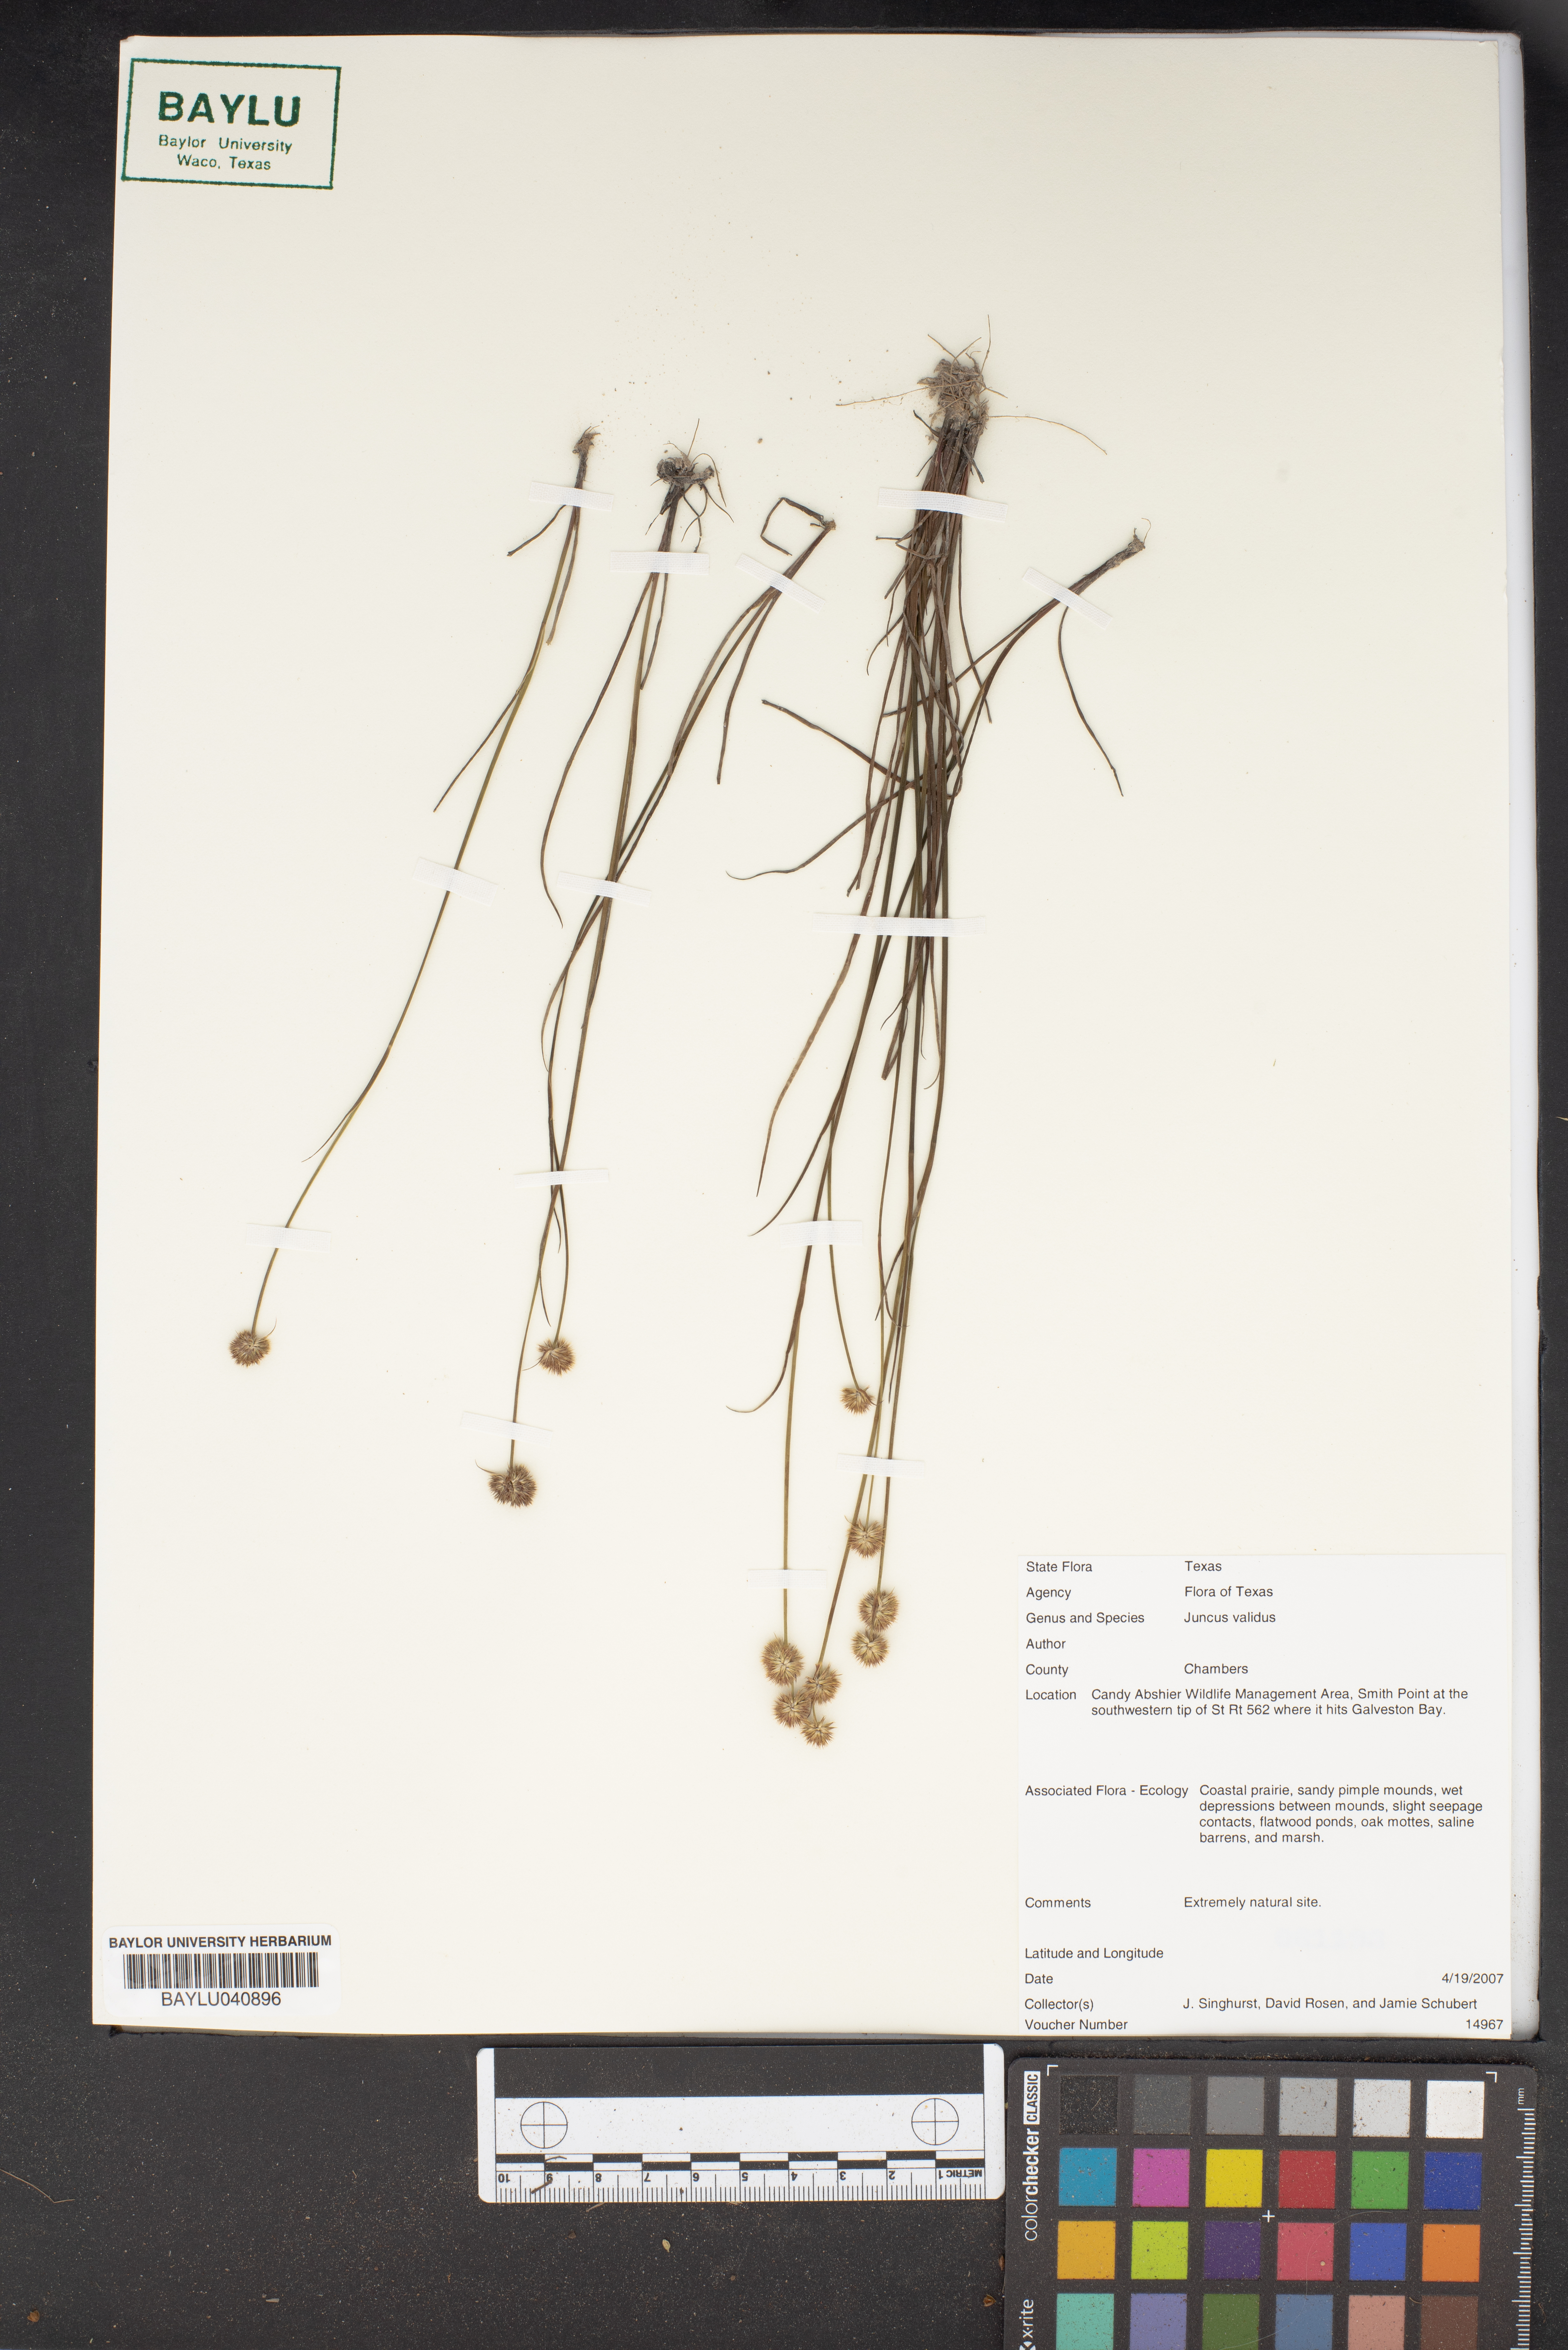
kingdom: Plantae
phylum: Tracheophyta
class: Liliopsida
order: Poales
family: Juncaceae
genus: Juncus
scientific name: Juncus validus
